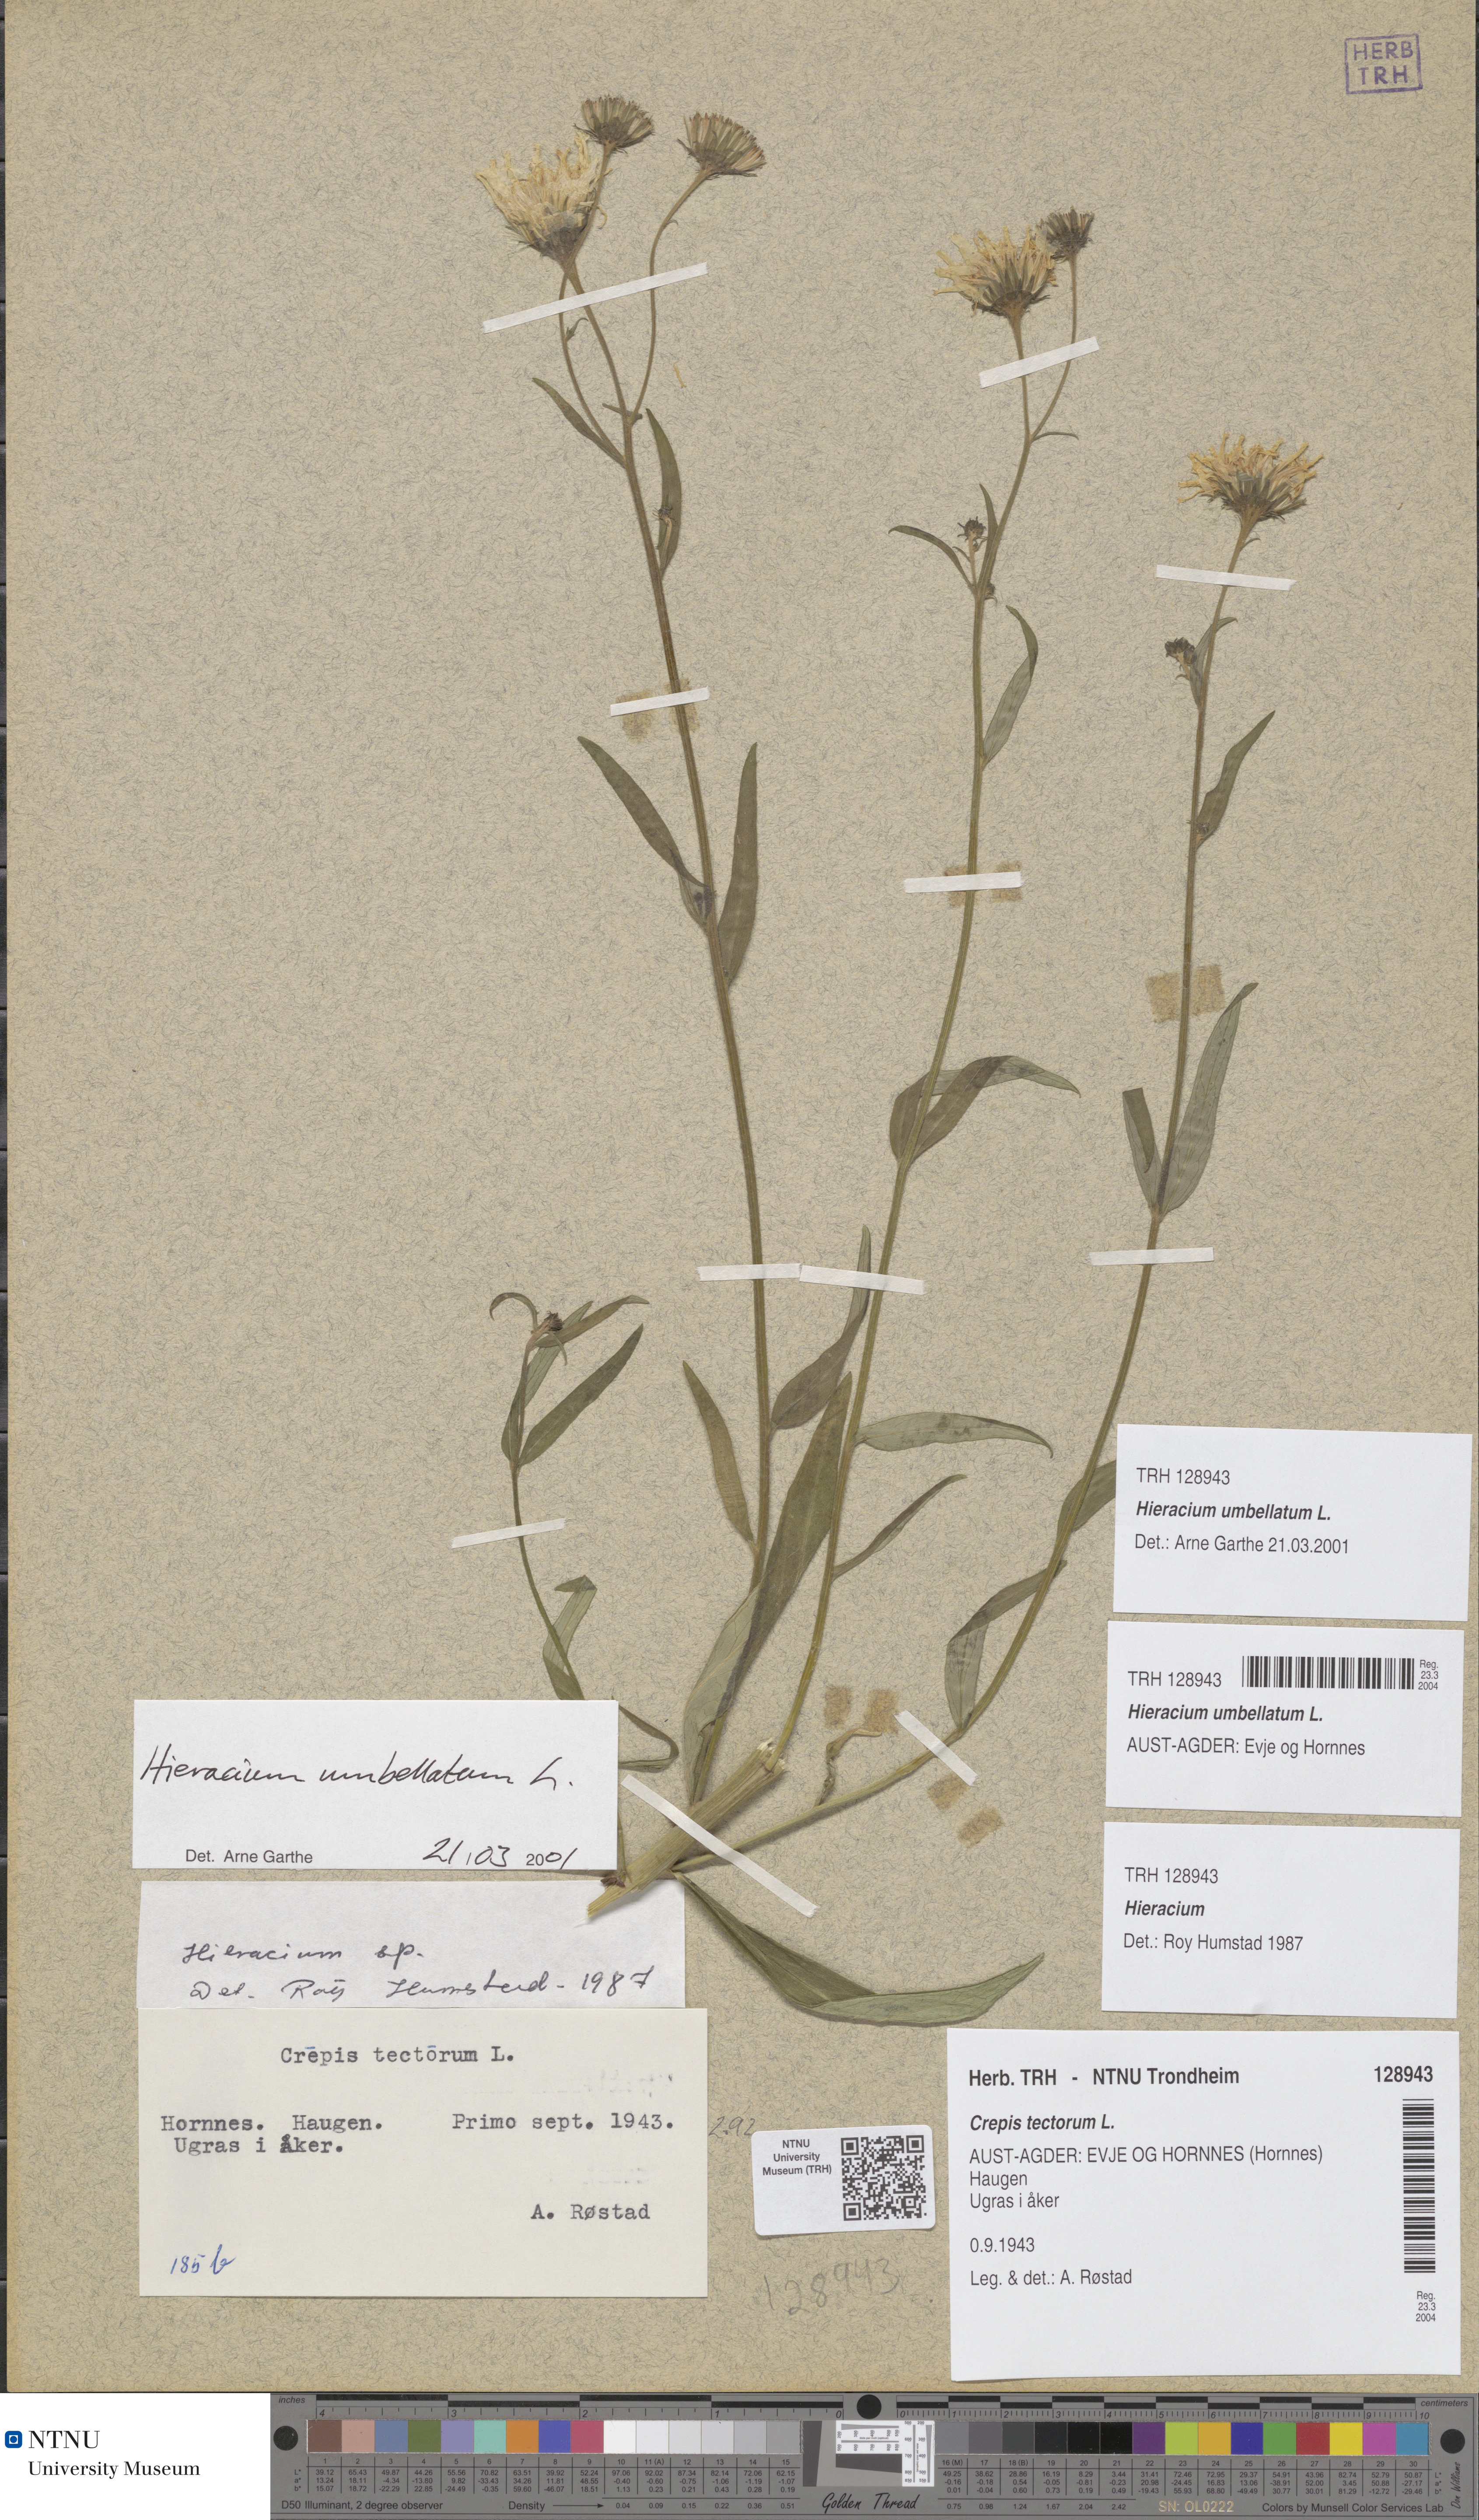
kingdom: Plantae
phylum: Tracheophyta
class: Magnoliopsida
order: Asterales
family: Asteraceae
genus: Hieracium
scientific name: Hieracium umbellatum
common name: Northern hawkweed
